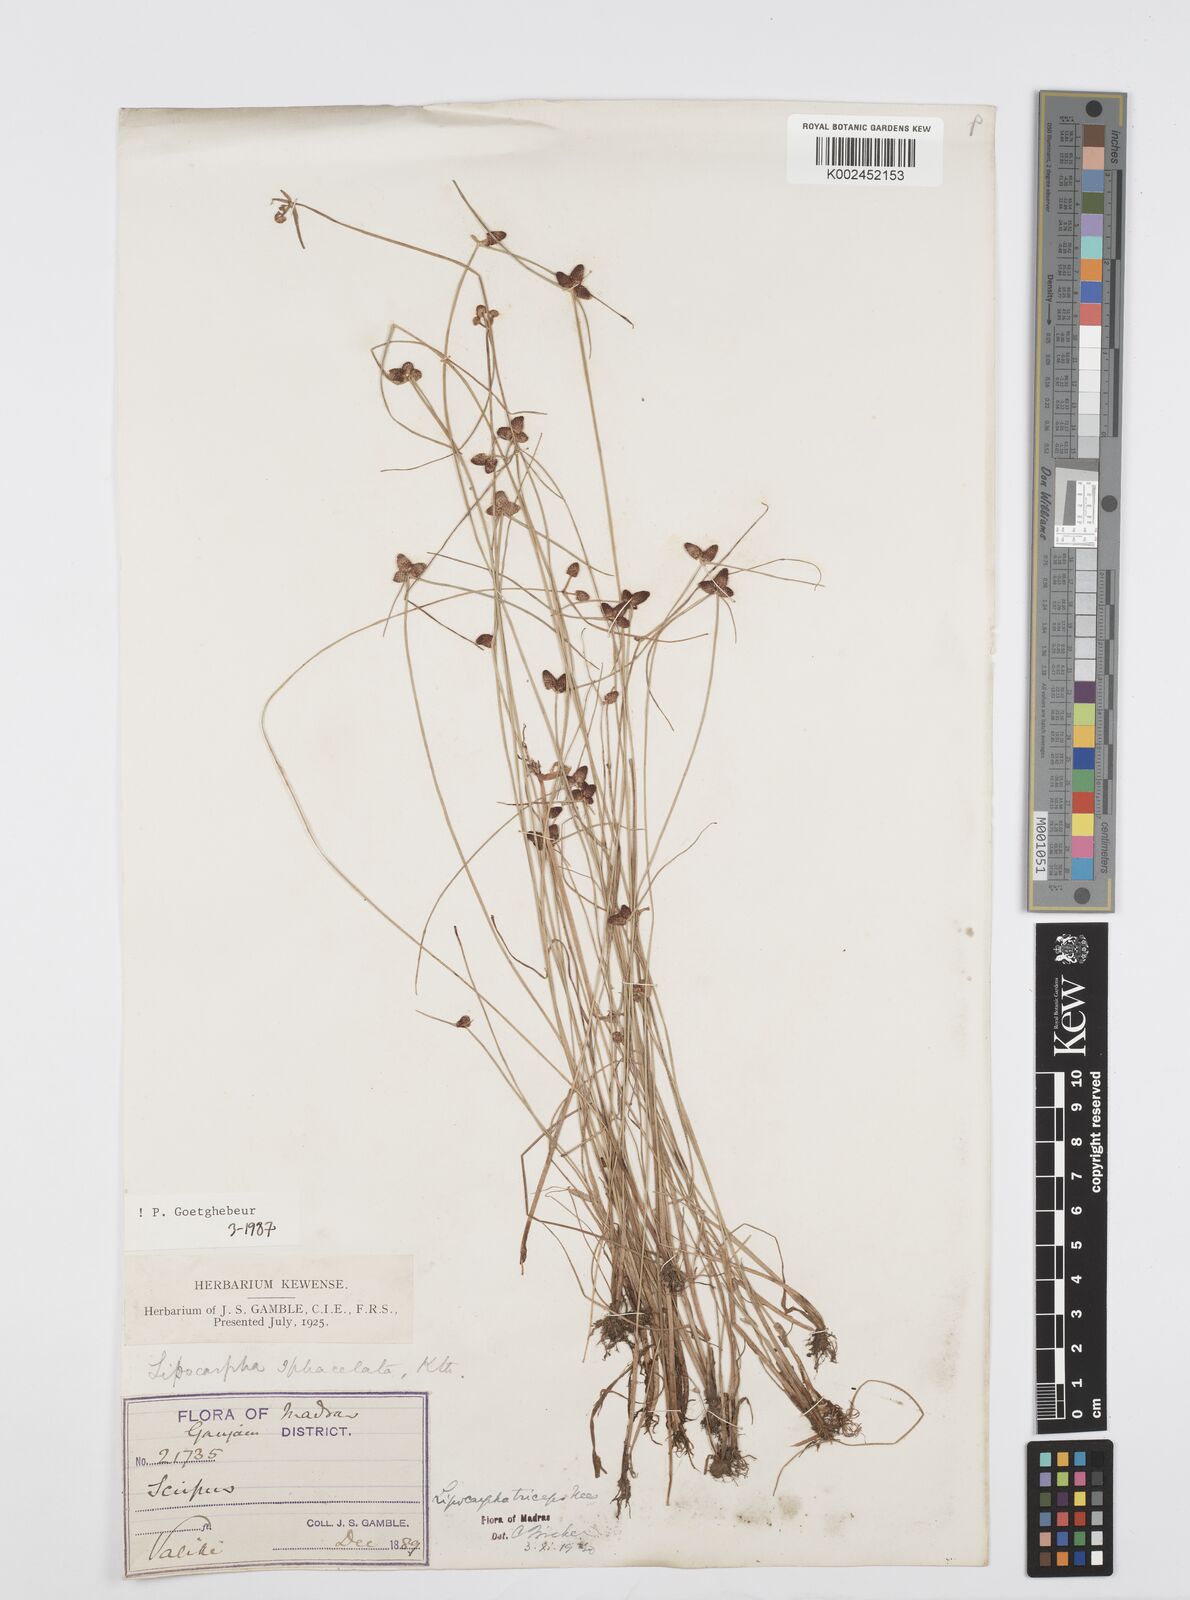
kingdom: Plantae
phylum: Tracheophyta
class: Liliopsida
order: Poales
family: Cyperaceae
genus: Cyperus
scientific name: Cyperus sphacelatus
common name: Roadside flatsedge
